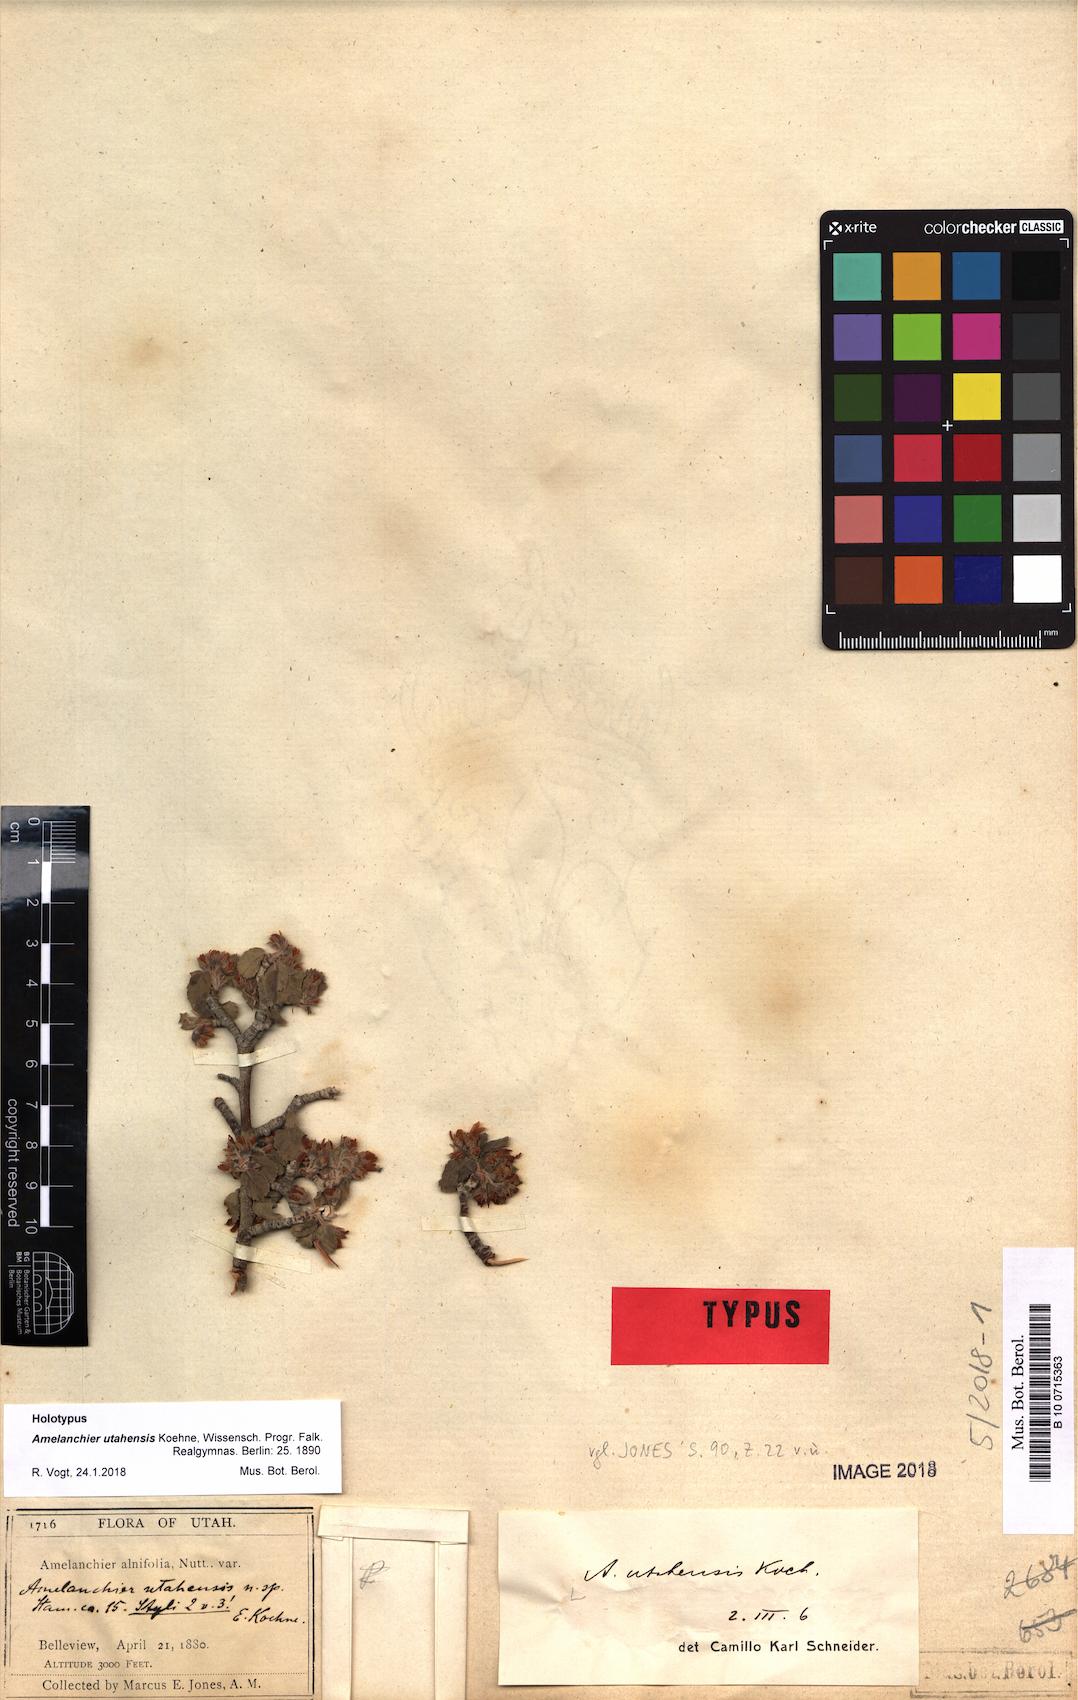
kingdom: Plantae
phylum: Tracheophyta
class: Magnoliopsida
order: Rosales
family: Rosaceae
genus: Amelanchier
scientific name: Amelanchier utahensis
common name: Utah serviceberry
